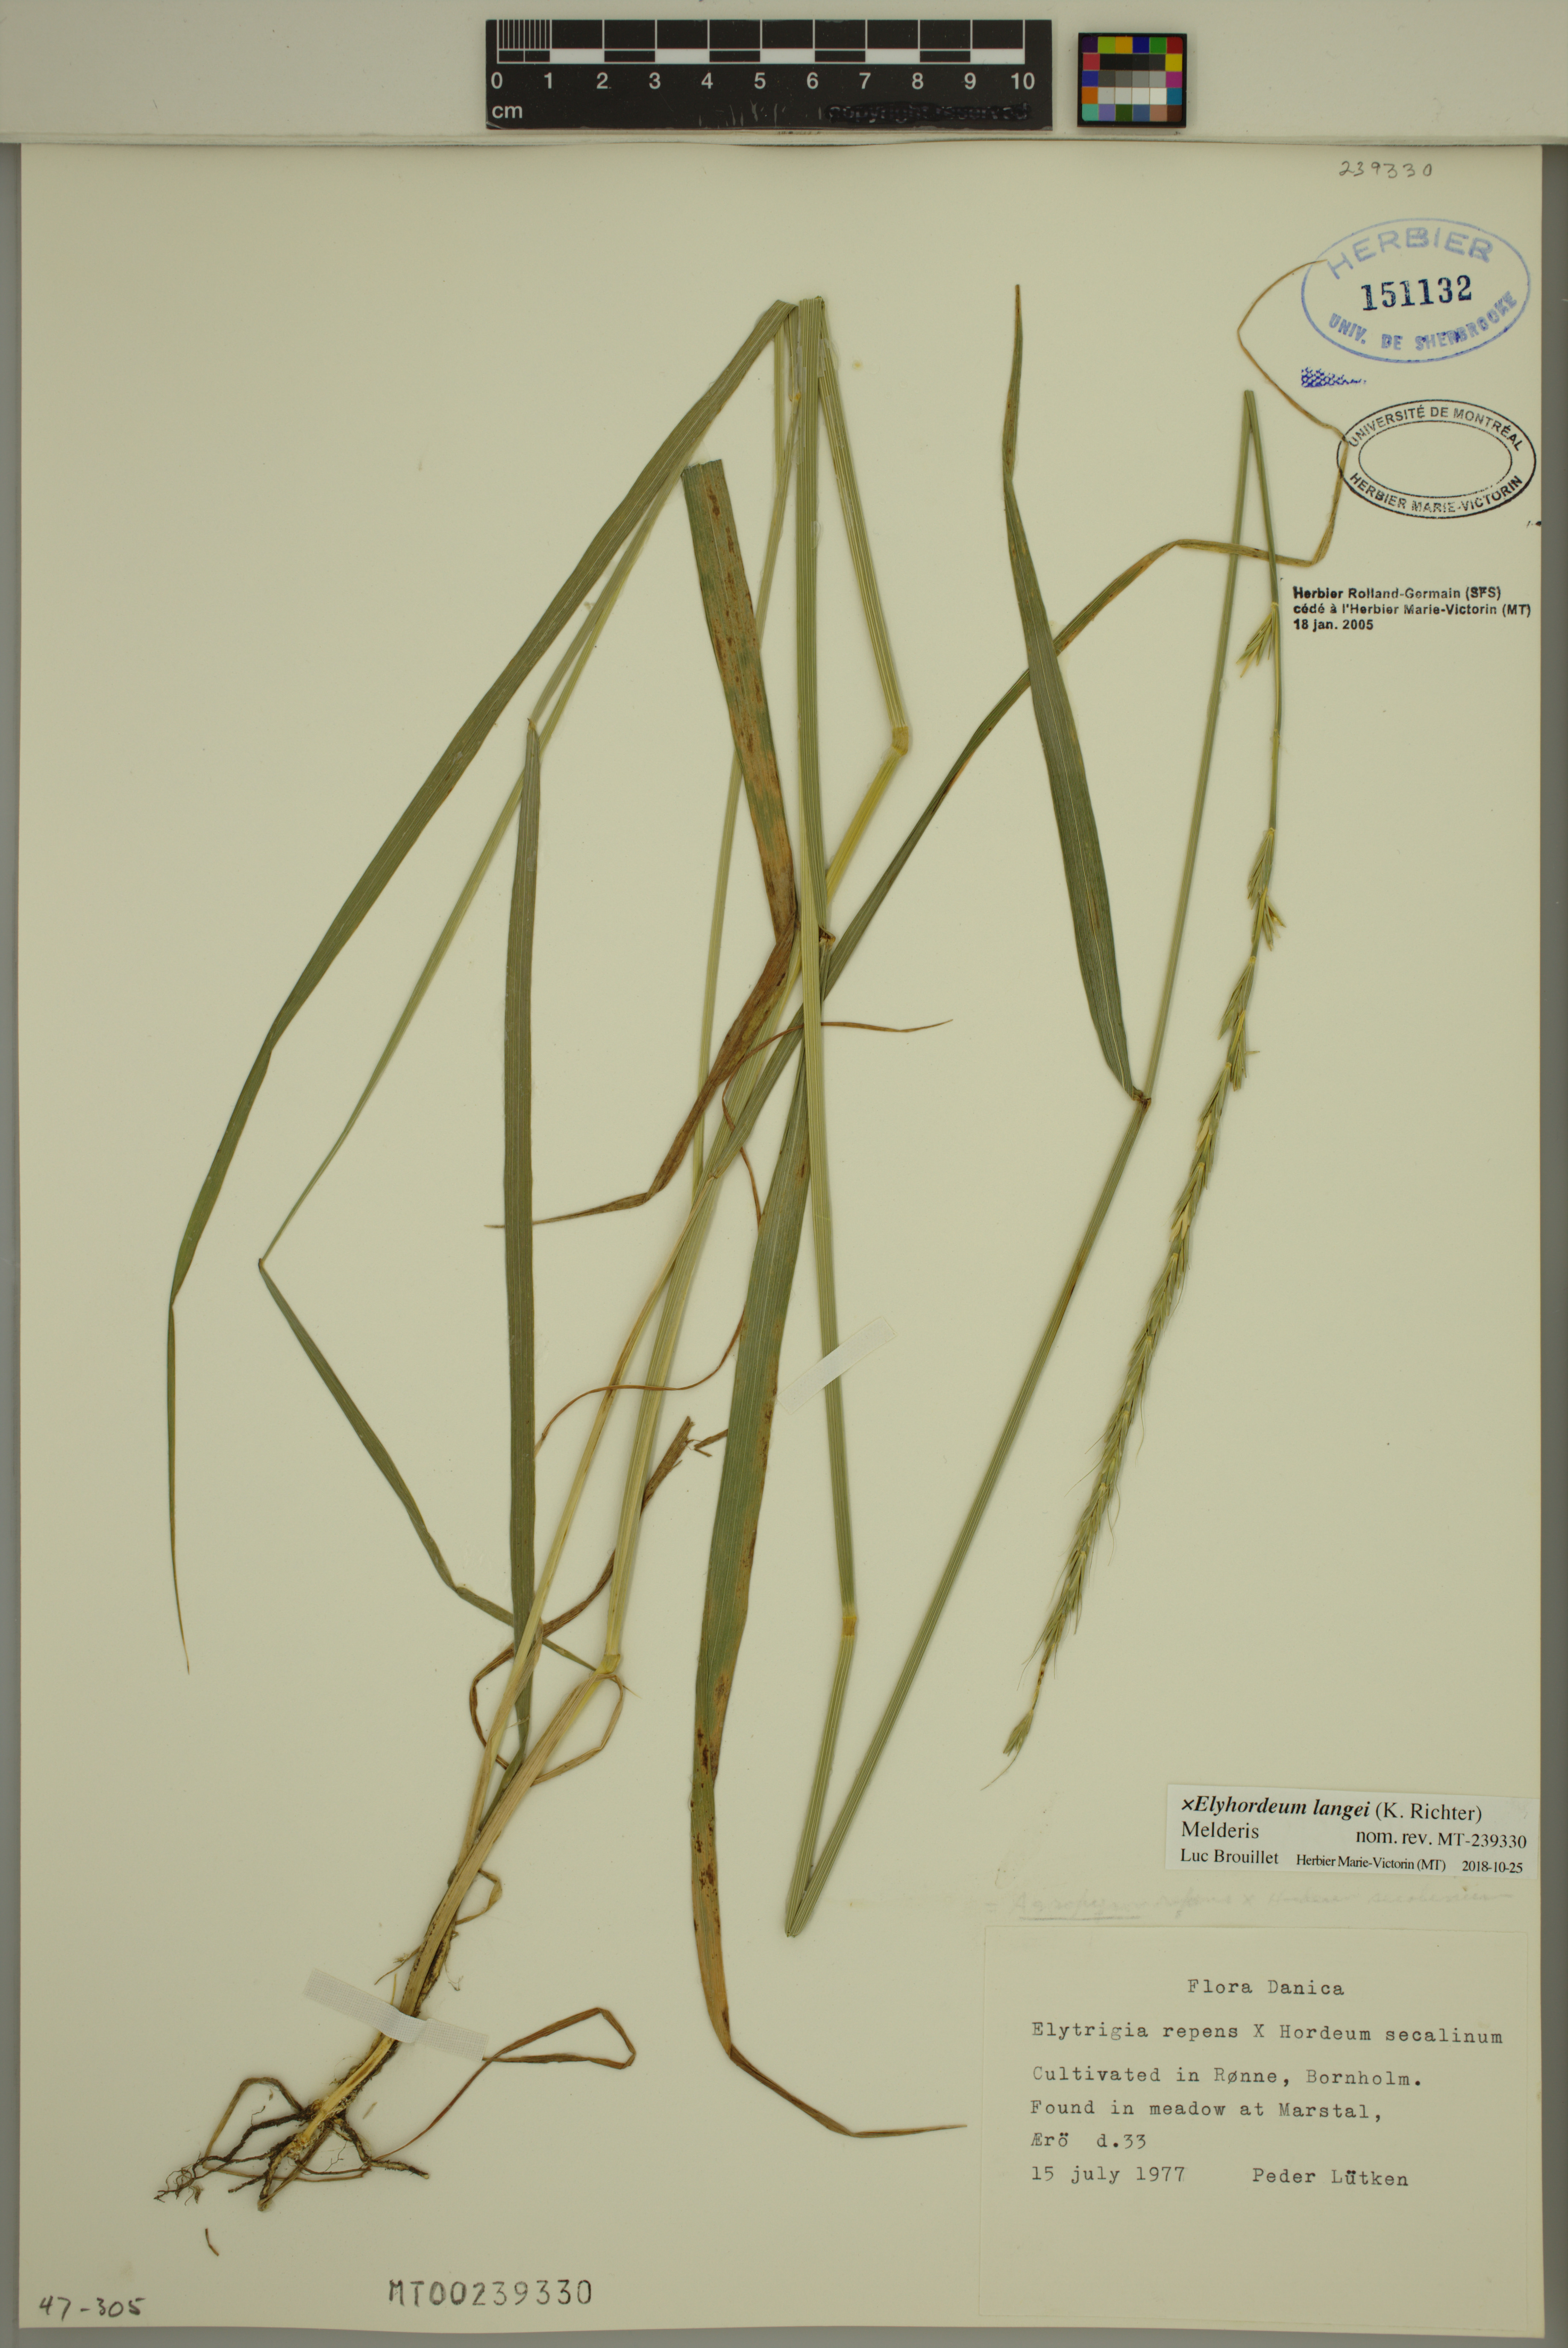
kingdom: Plantae
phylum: Tracheophyta
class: Liliopsida
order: Poales
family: Poaceae
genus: Elyhordeum
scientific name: Elyhordeum langei
